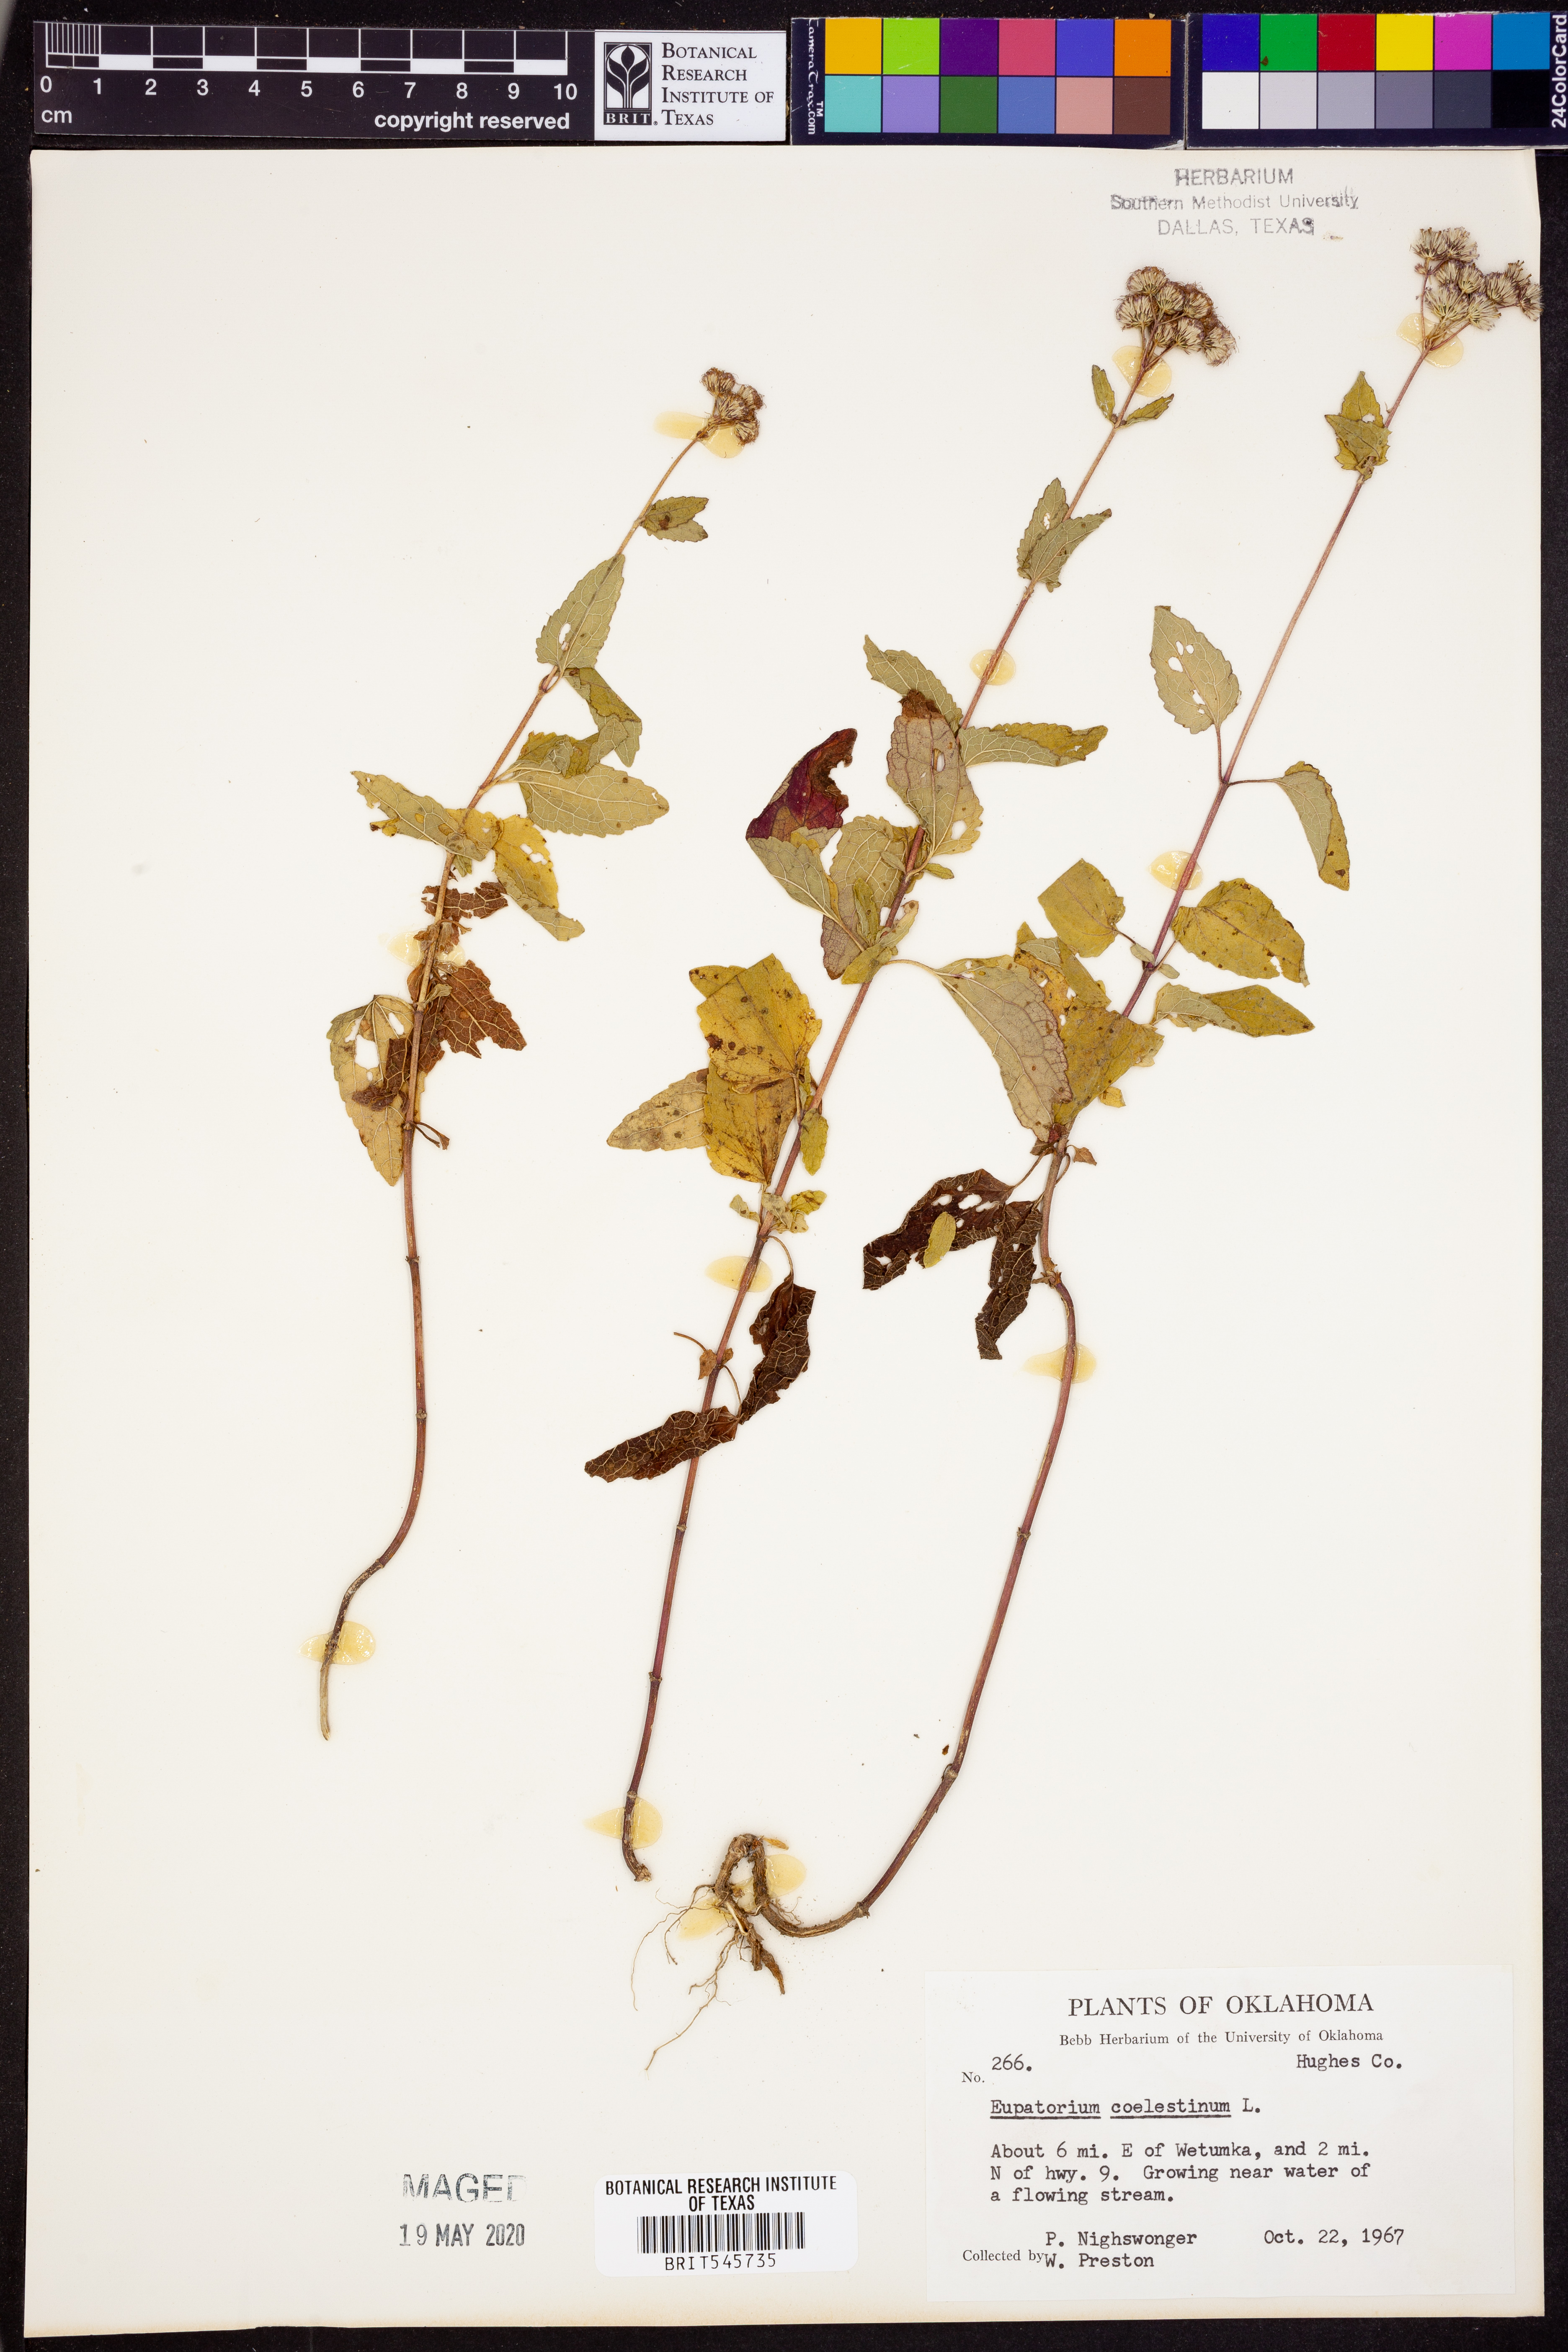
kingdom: Plantae
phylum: Tracheophyta
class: Magnoliopsida
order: Asterales
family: Asteraceae
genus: Conoclinium
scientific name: Conoclinium coelestinum
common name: Blue mistflower
